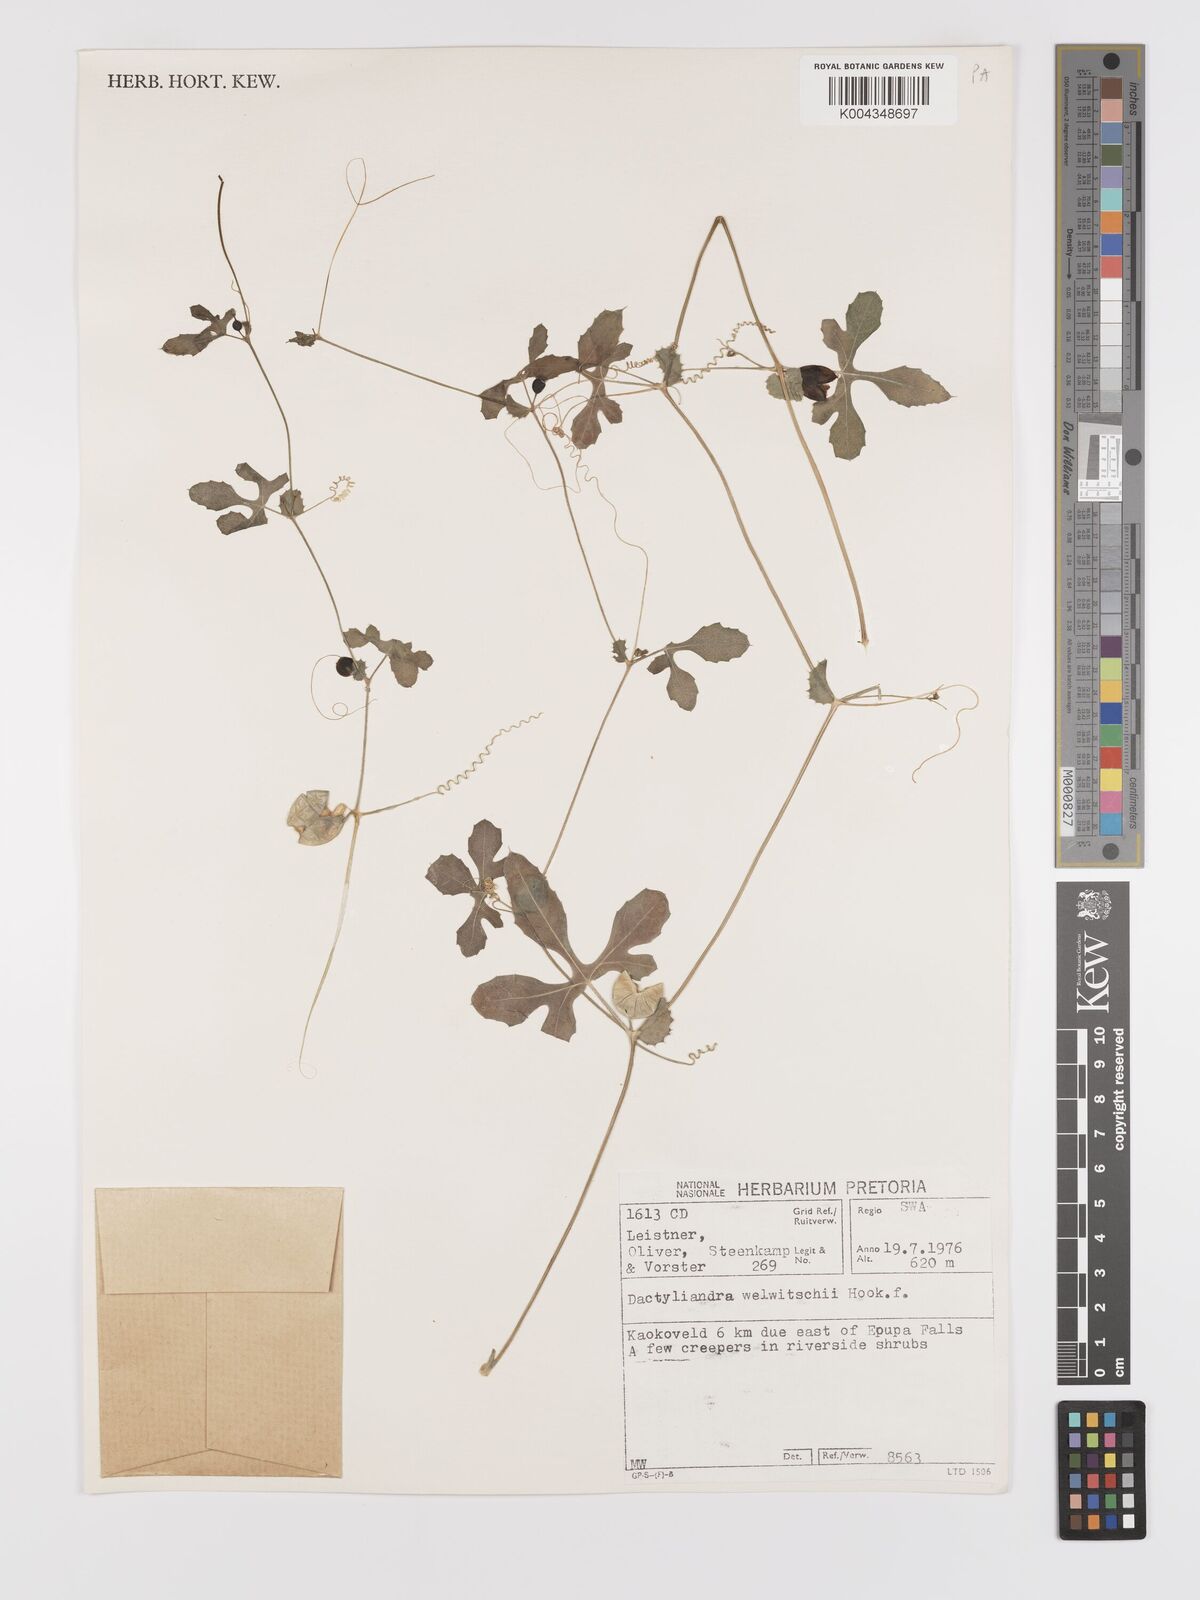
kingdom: Plantae
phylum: Tracheophyta
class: Magnoliopsida
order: Cucurbitales
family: Cucurbitaceae
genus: Dactyliandra
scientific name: Dactyliandra welwitschii
